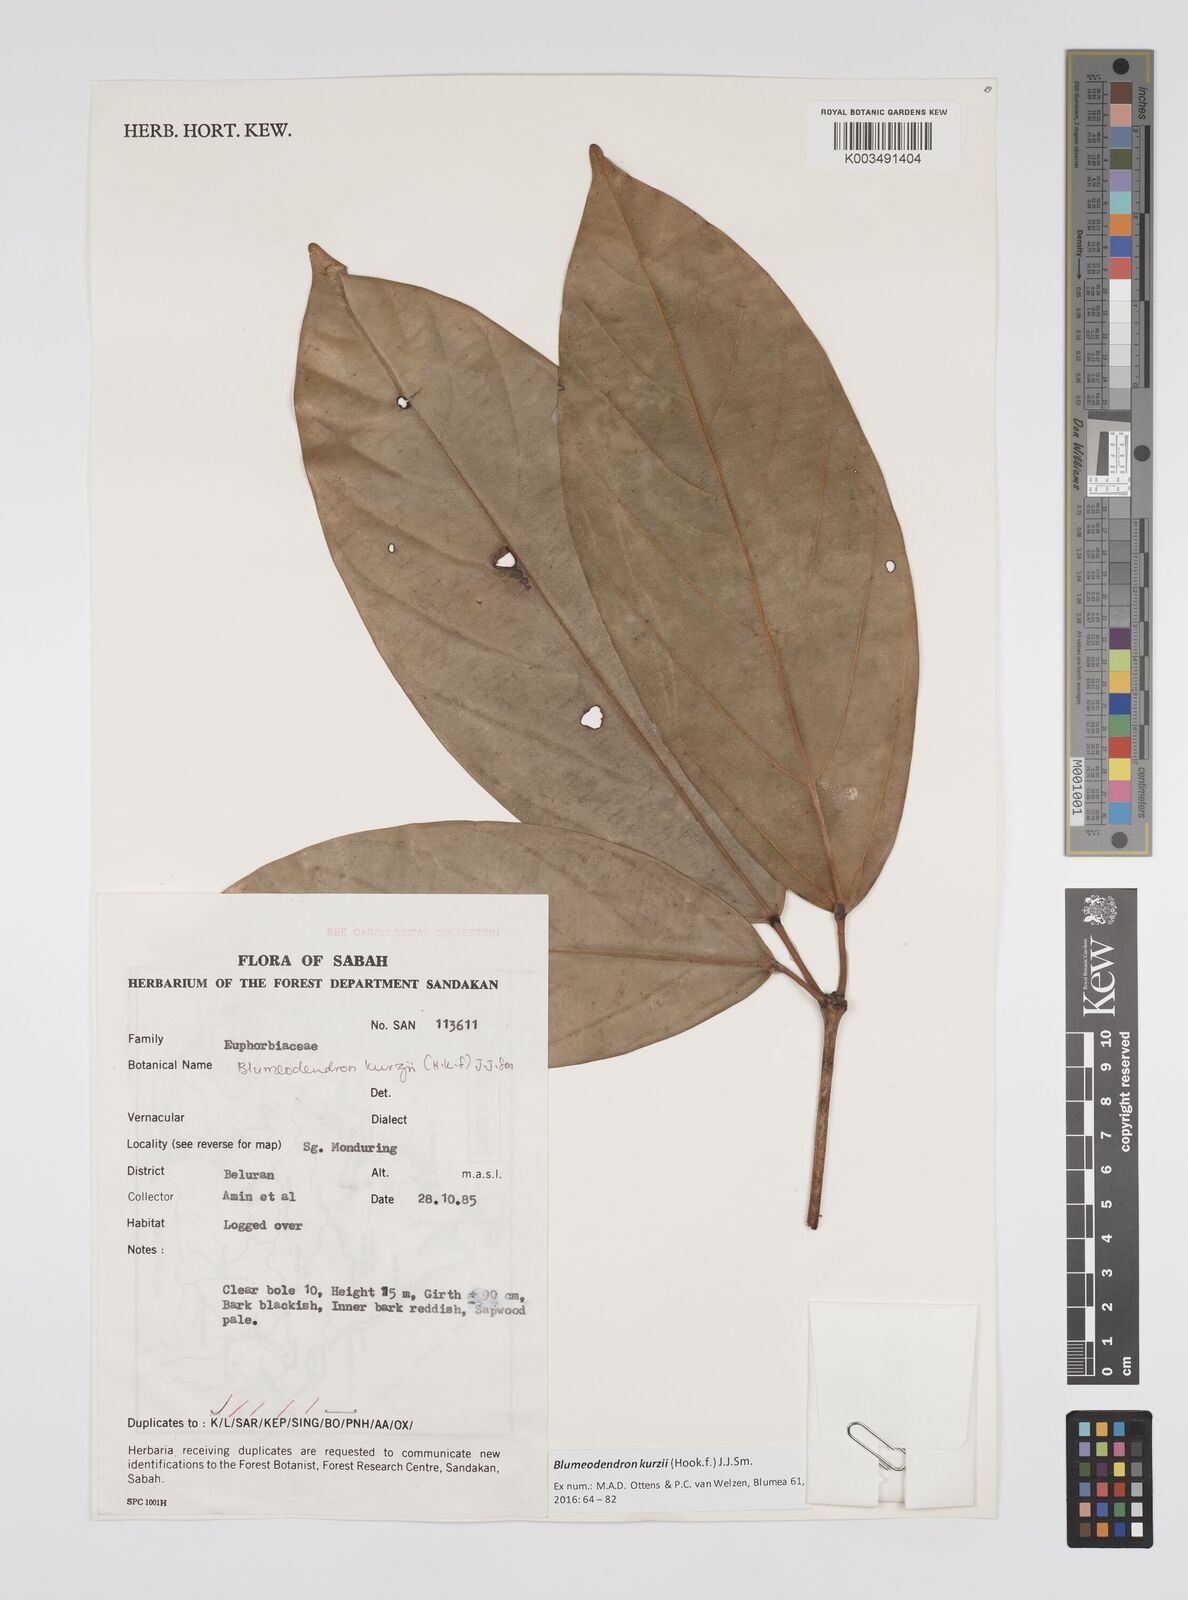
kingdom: Plantae
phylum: Tracheophyta
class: Magnoliopsida
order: Malpighiales
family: Euphorbiaceae
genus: Blumeodendron
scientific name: Blumeodendron kurzii
